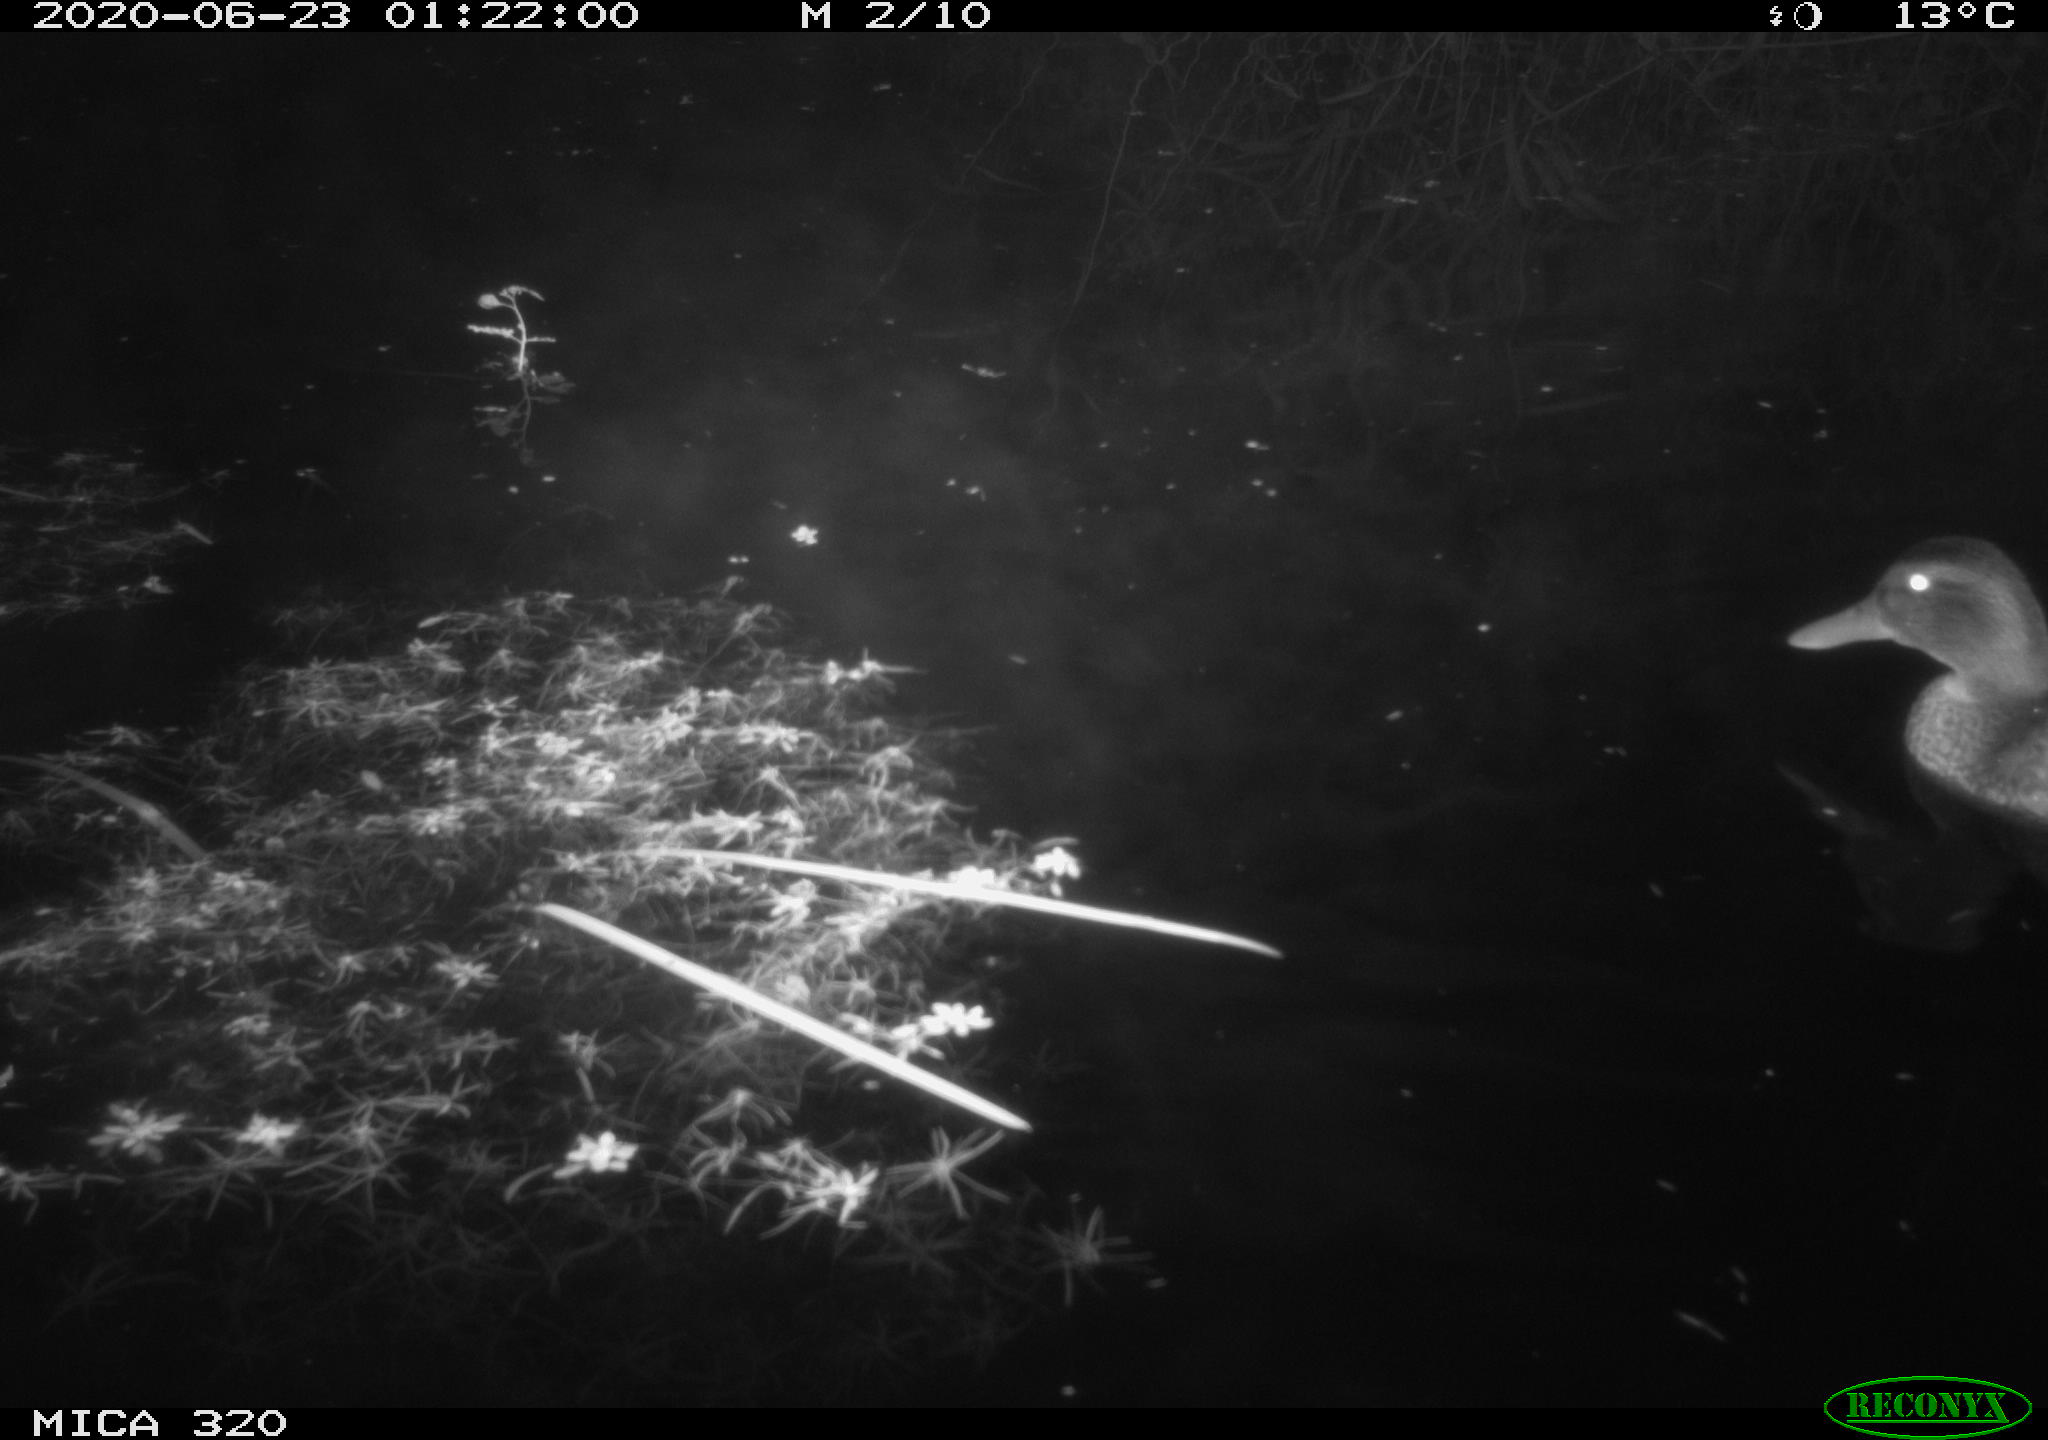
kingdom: Animalia
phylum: Chordata
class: Aves
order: Anseriformes
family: Anatidae
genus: Anas
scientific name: Anas platyrhynchos
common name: Mallard
